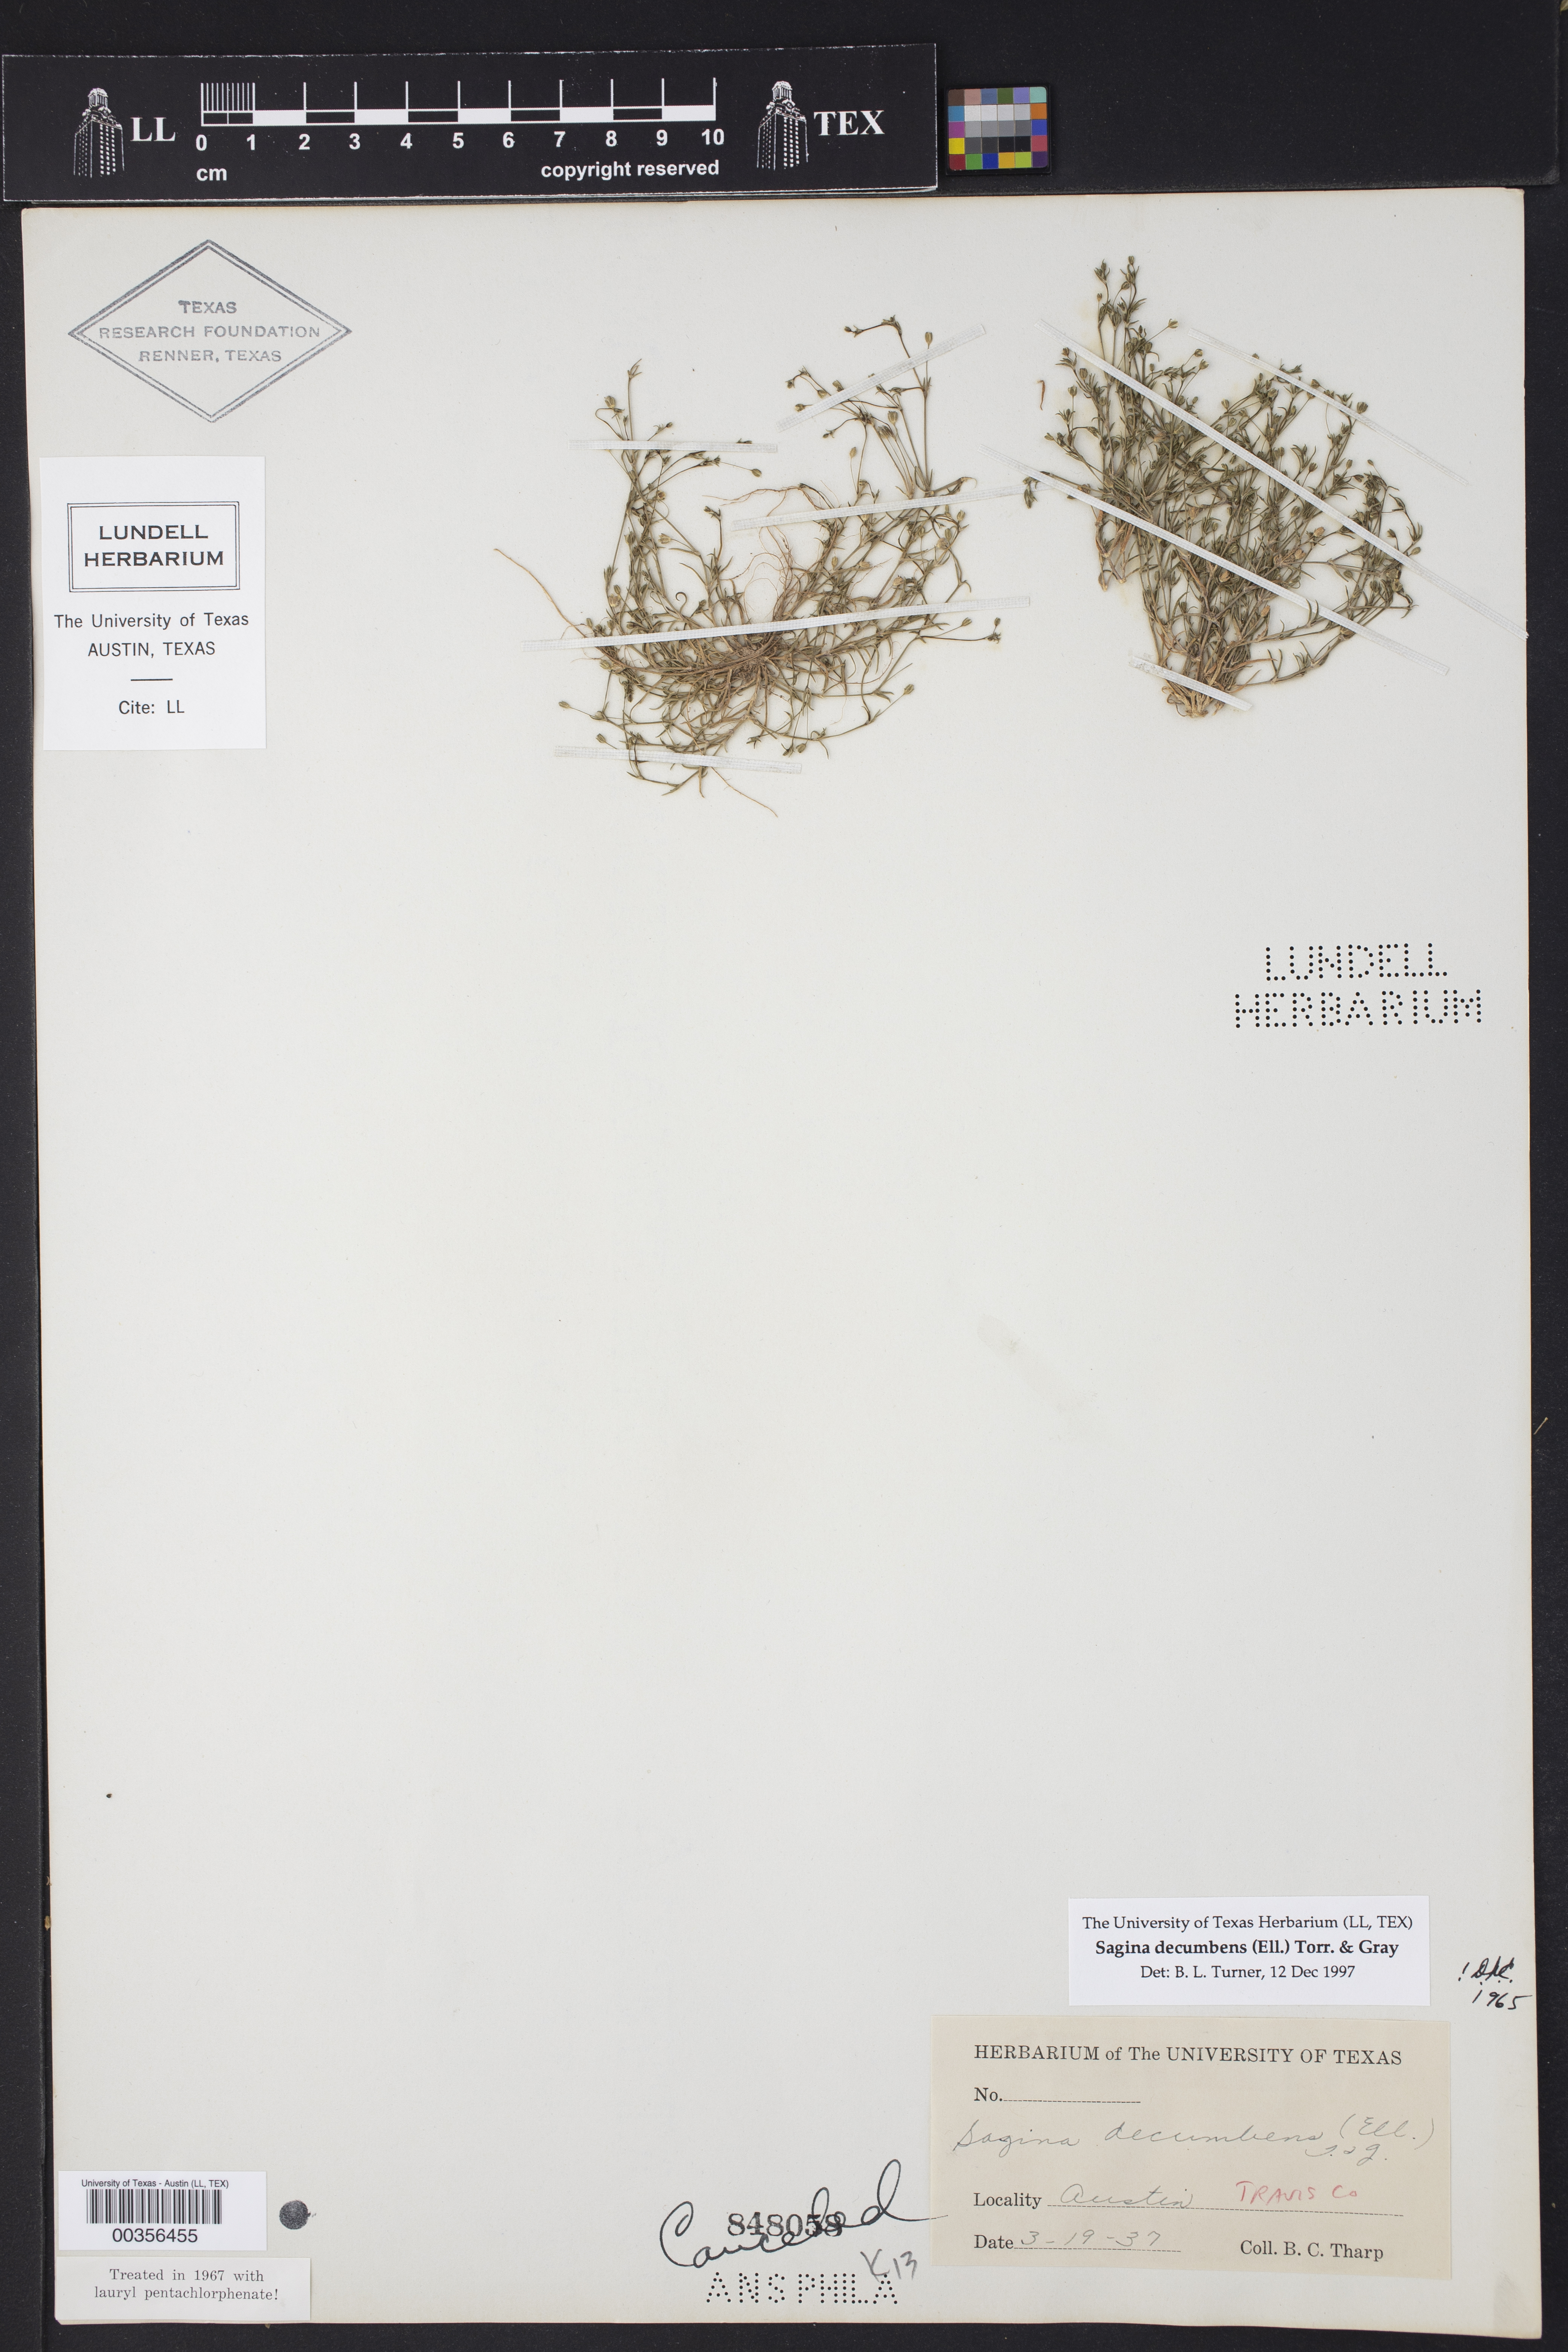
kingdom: Plantae
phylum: Tracheophyta
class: Magnoliopsida
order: Caryophyllales
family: Caryophyllaceae
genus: Sagina
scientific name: Sagina decumbens
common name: Decumbent pearlwort
